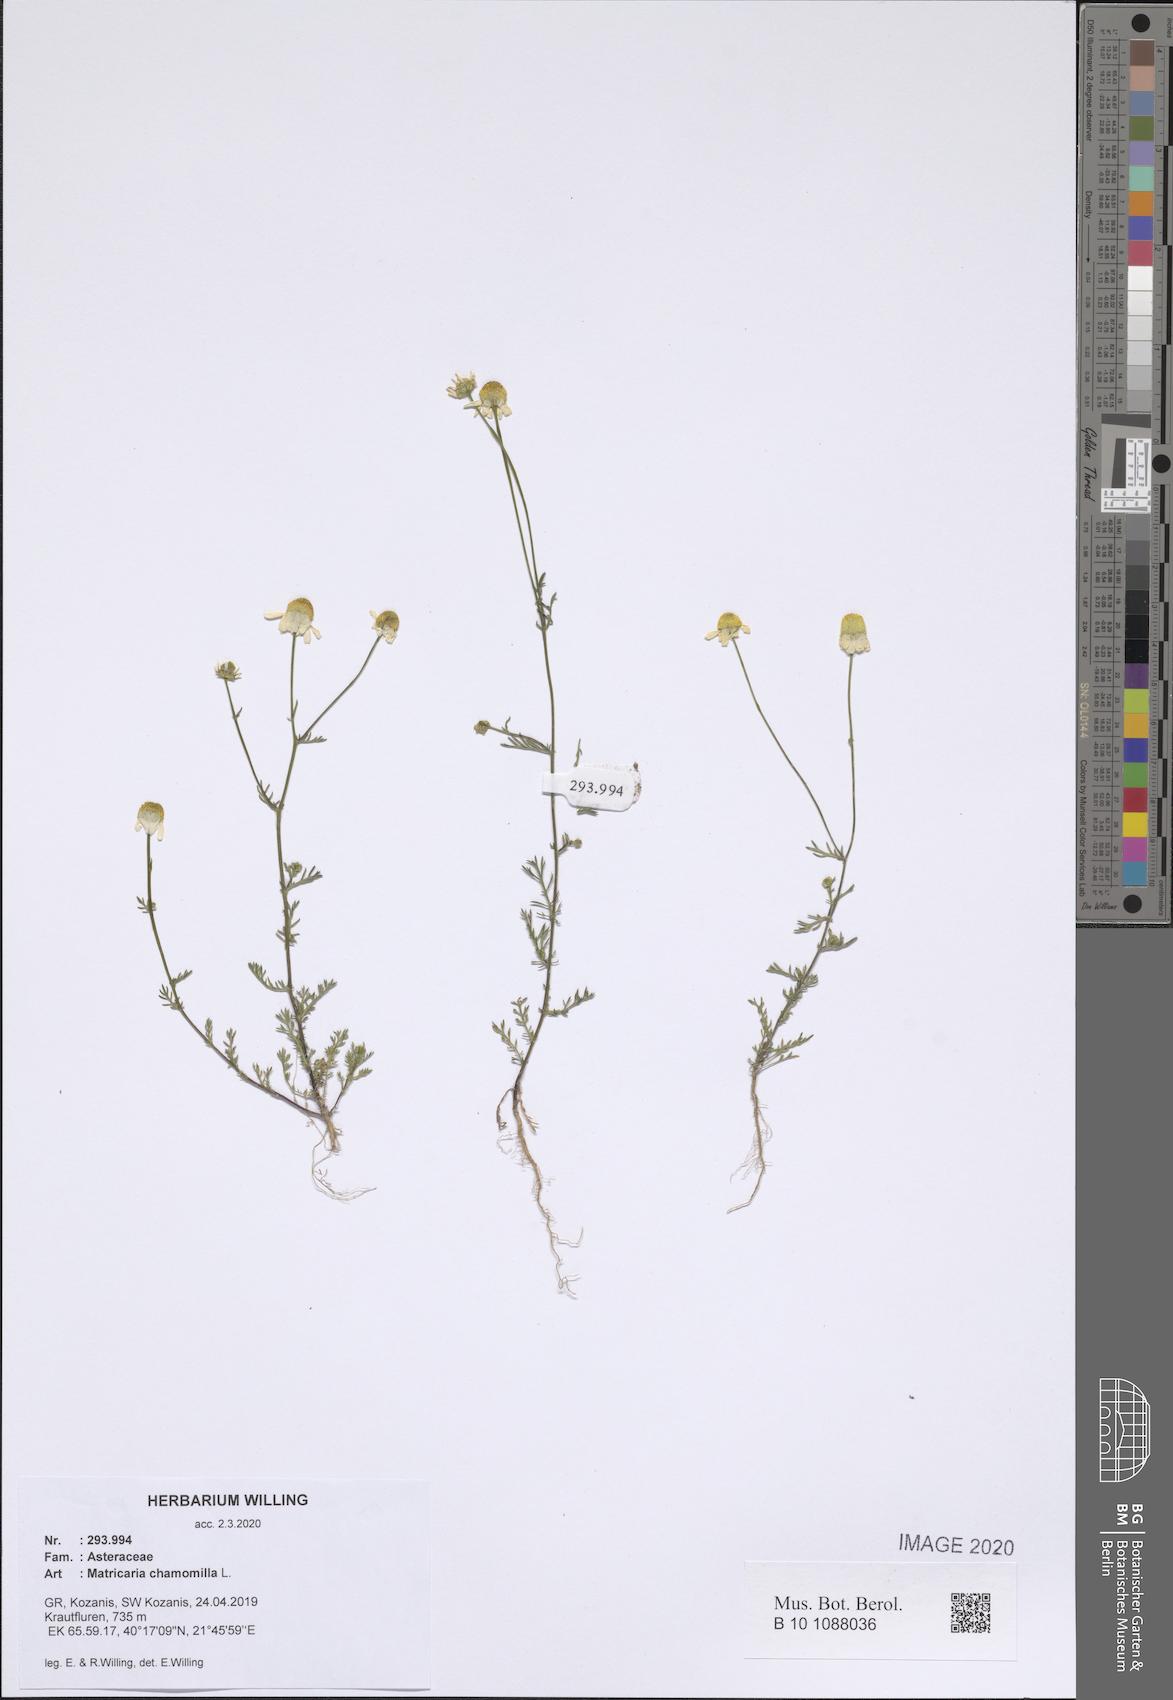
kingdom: Plantae
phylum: Tracheophyta
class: Magnoliopsida
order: Asterales
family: Asteraceae
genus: Matricaria
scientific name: Matricaria chamomilla
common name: Scented mayweed
